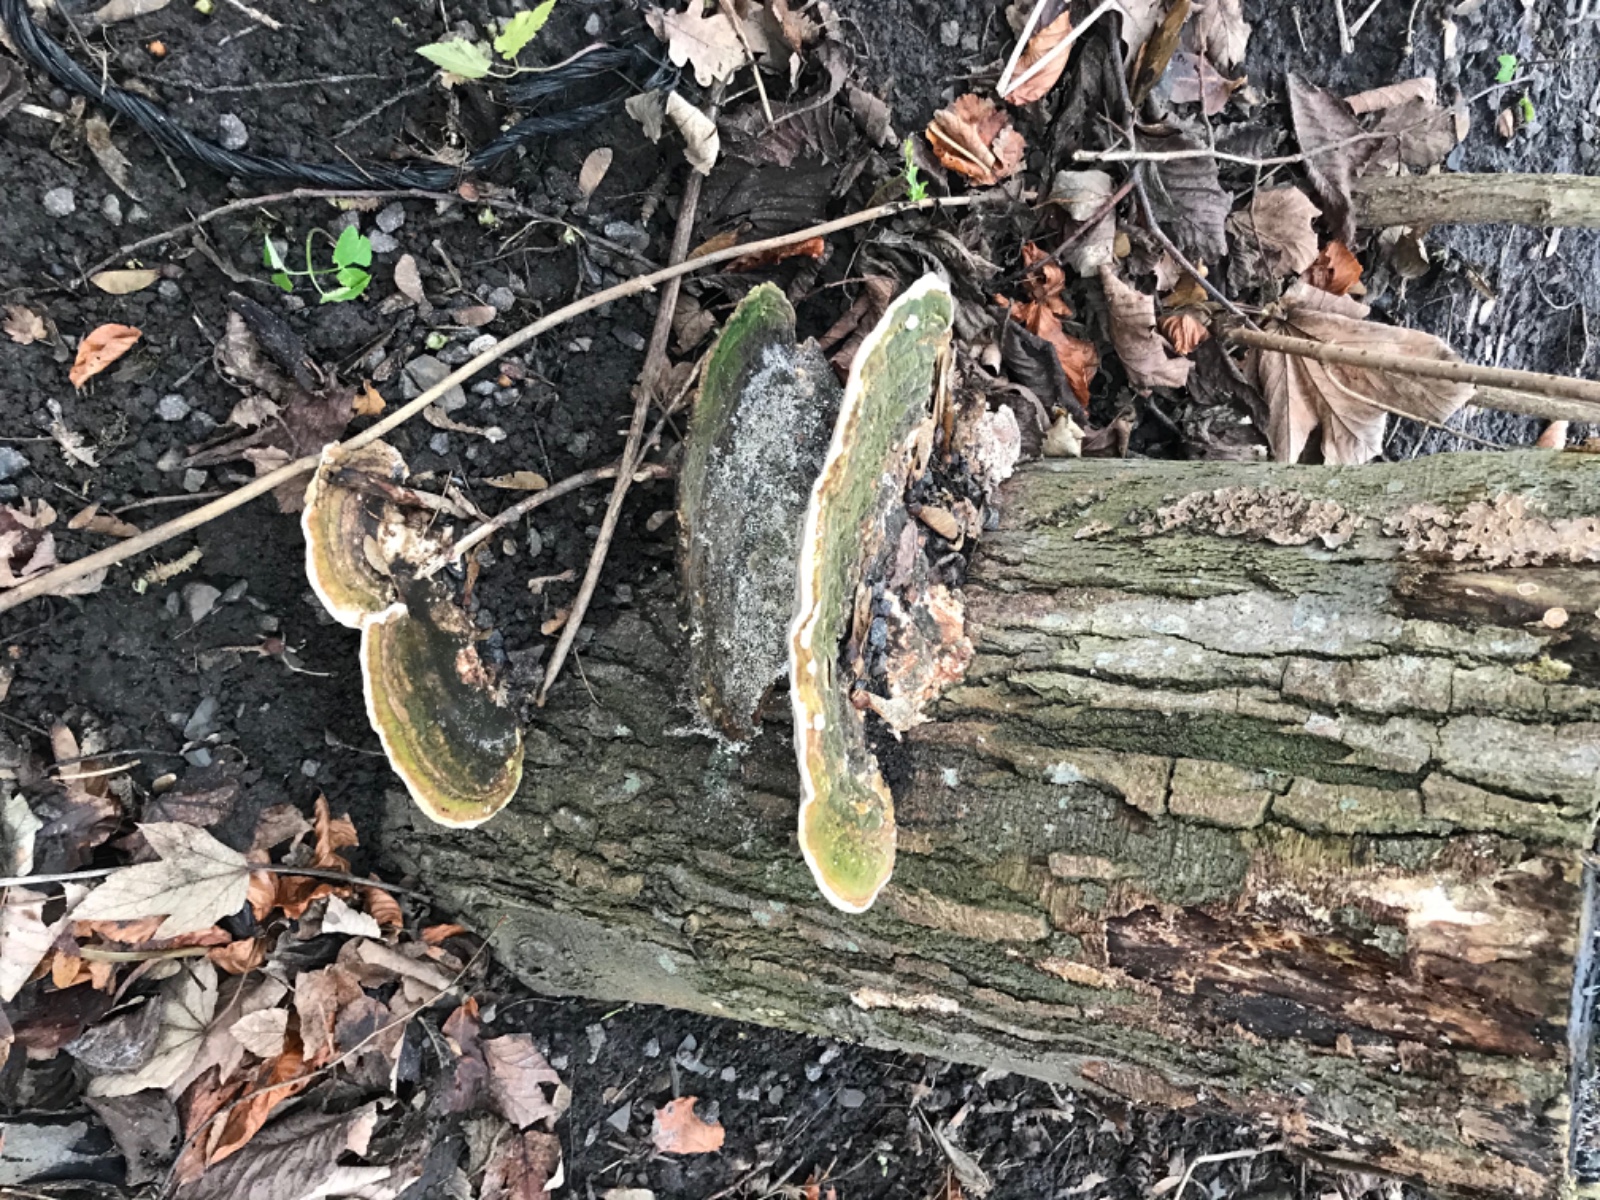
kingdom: Fungi
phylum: Basidiomycota
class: Agaricomycetes
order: Polyporales
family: Polyporaceae
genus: Trametes
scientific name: Trametes gibbosa
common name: puklet læderporesvamp
